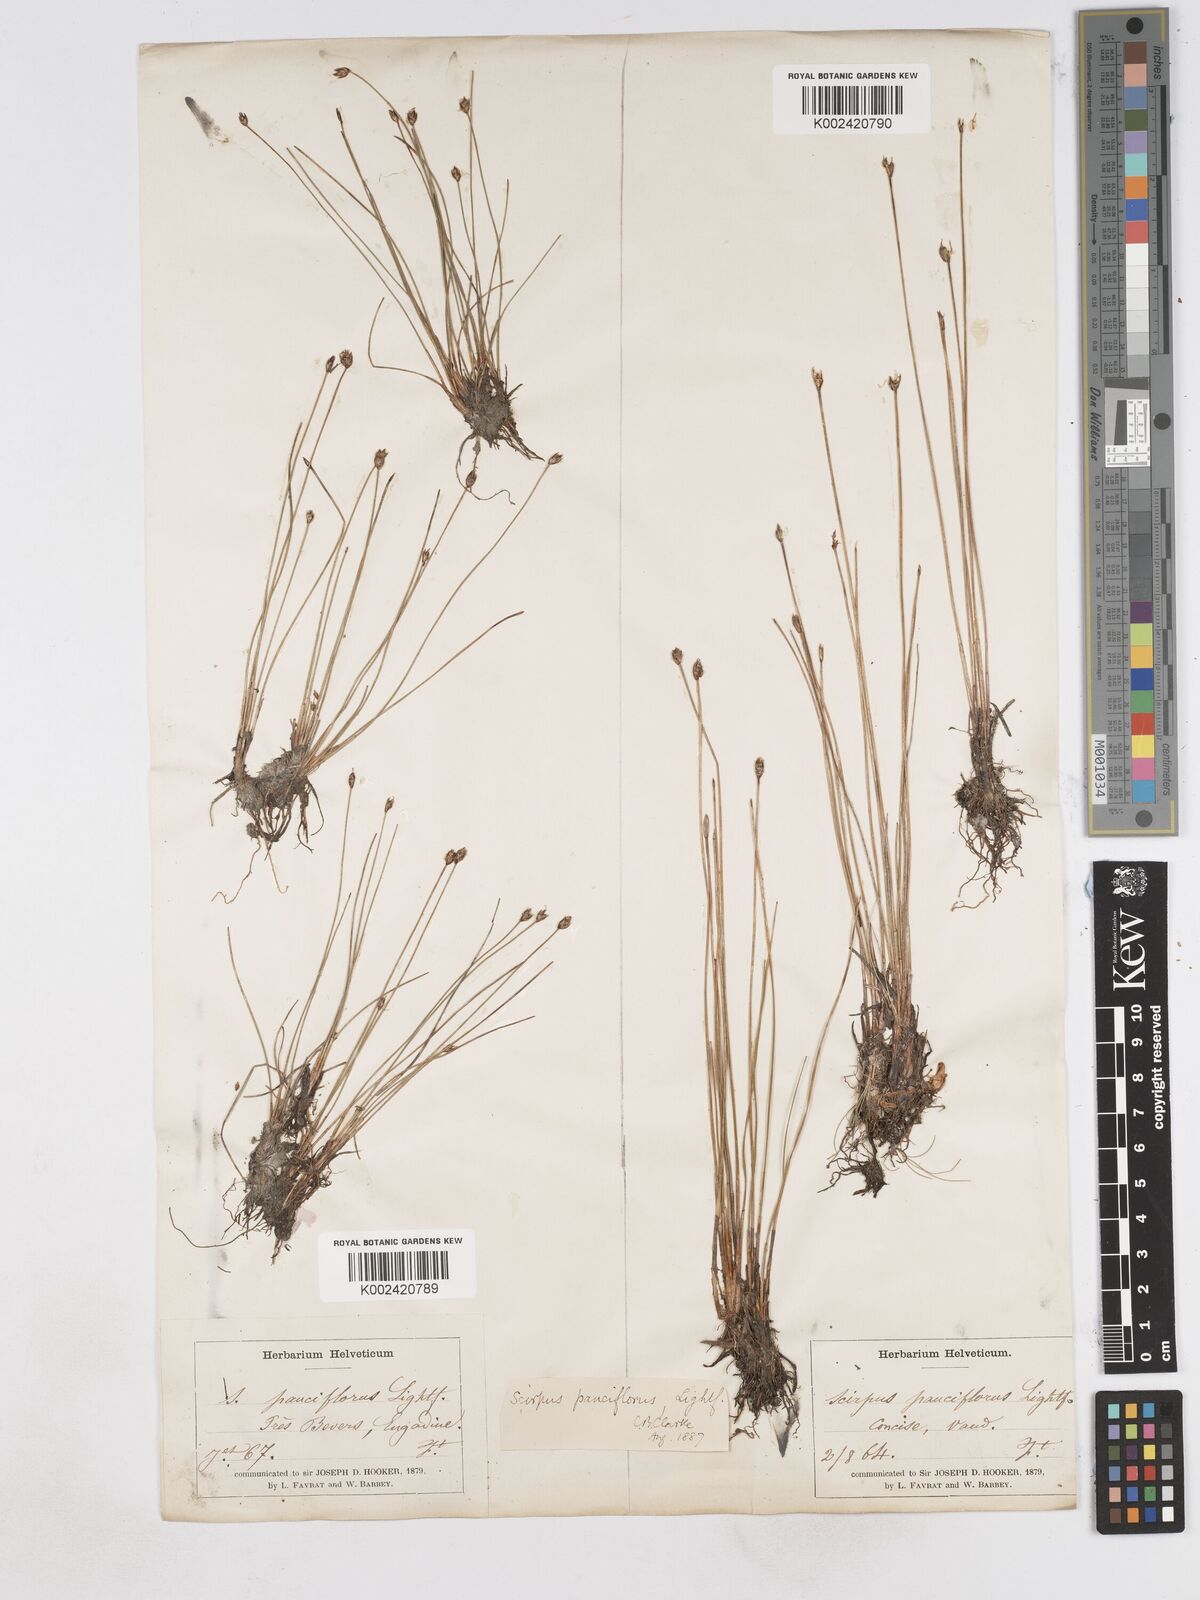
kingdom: Plantae
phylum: Tracheophyta
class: Liliopsida
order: Poales
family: Cyperaceae
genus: Eleocharis
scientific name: Eleocharis quinqueflora
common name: Few-flowered spike-rush
